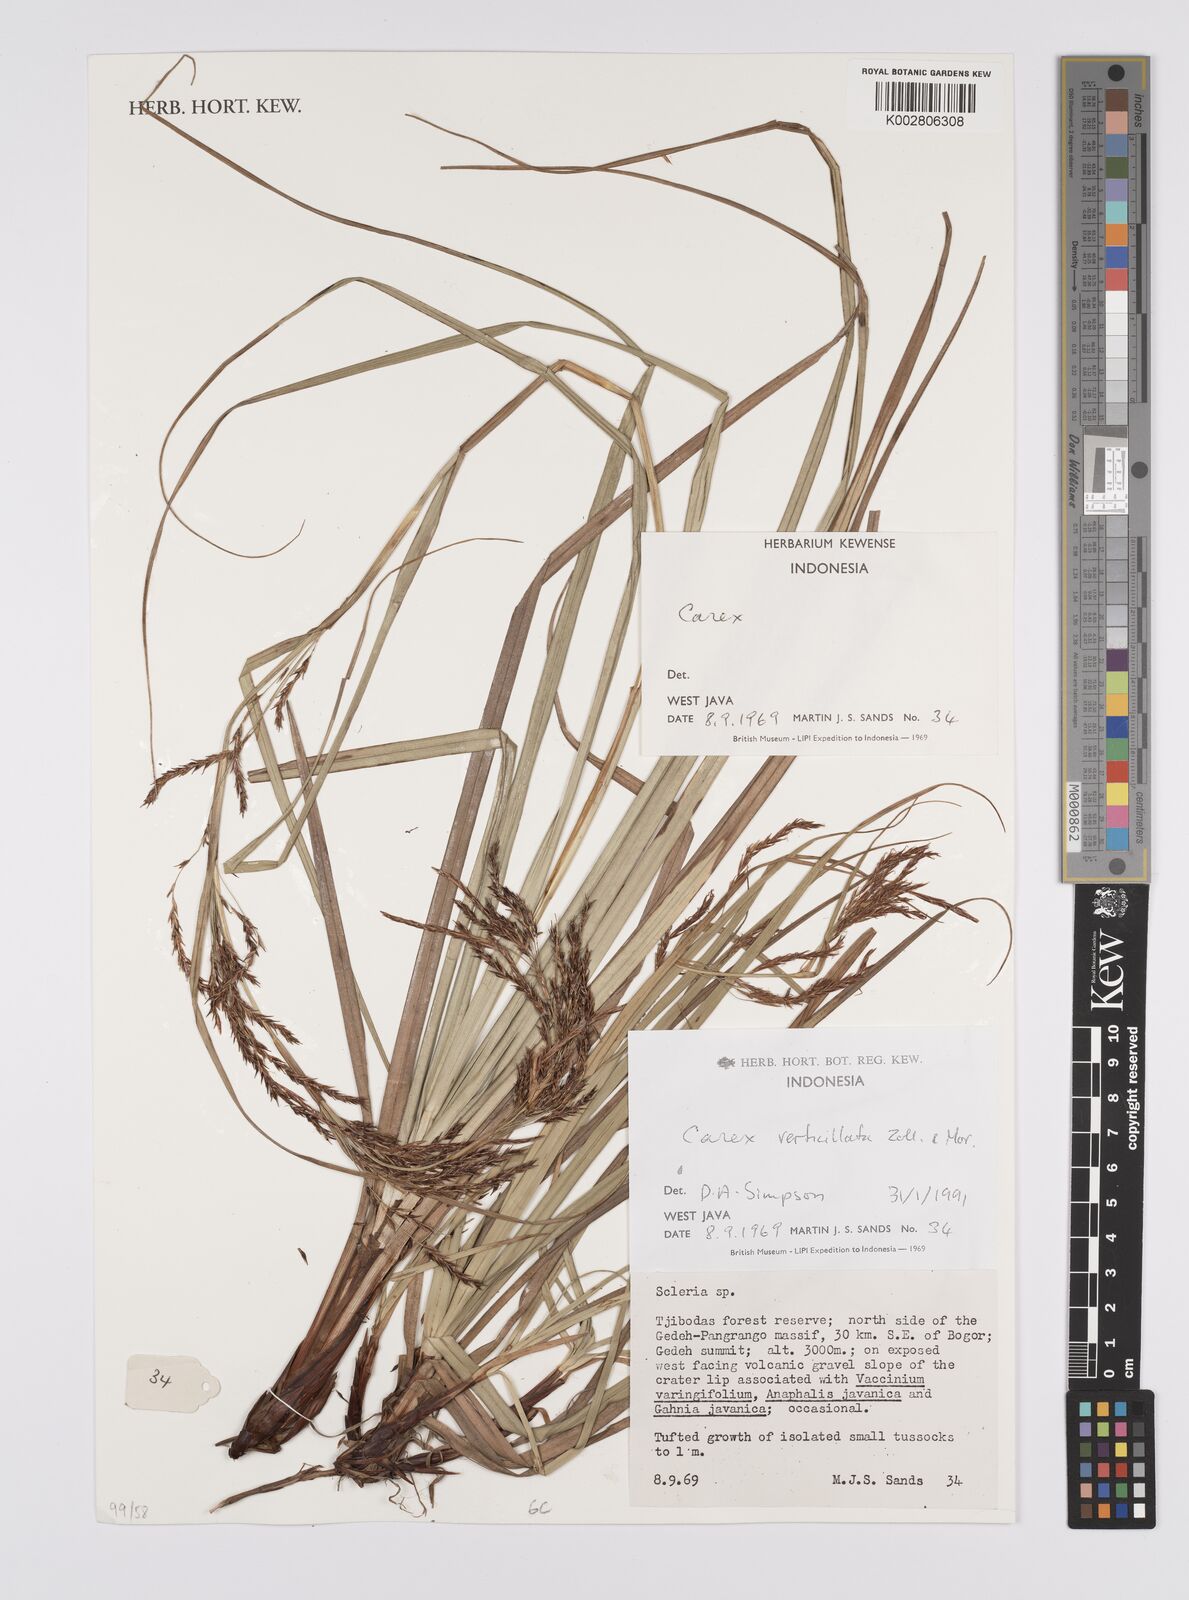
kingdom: Plantae
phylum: Tracheophyta
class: Liliopsida
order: Poales
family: Cyperaceae
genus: Carex
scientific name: Carex verticillata
